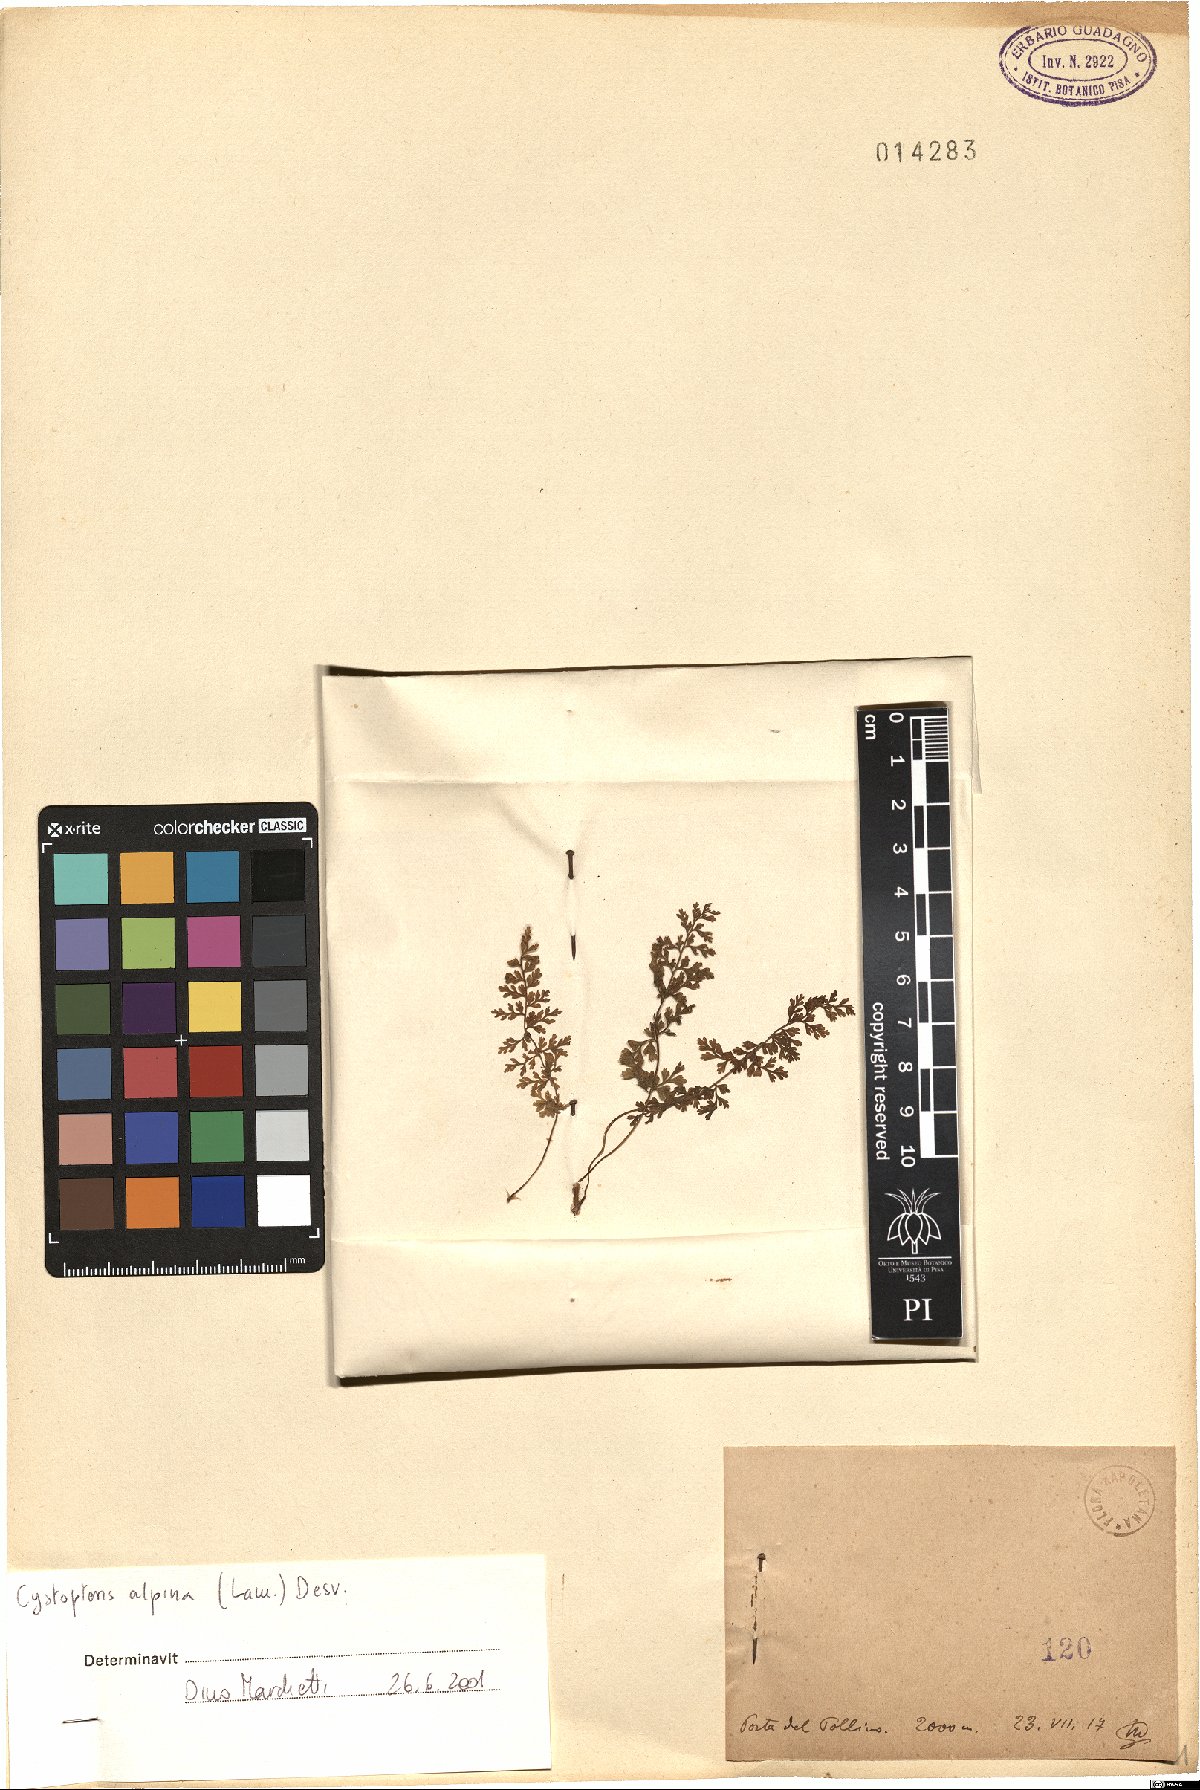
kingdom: Plantae
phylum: Tracheophyta
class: Polypodiopsida
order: Polypodiales
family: Cystopteridaceae
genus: Cystopteris
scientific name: Cystopteris alpina
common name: Alpine bladder-fern
